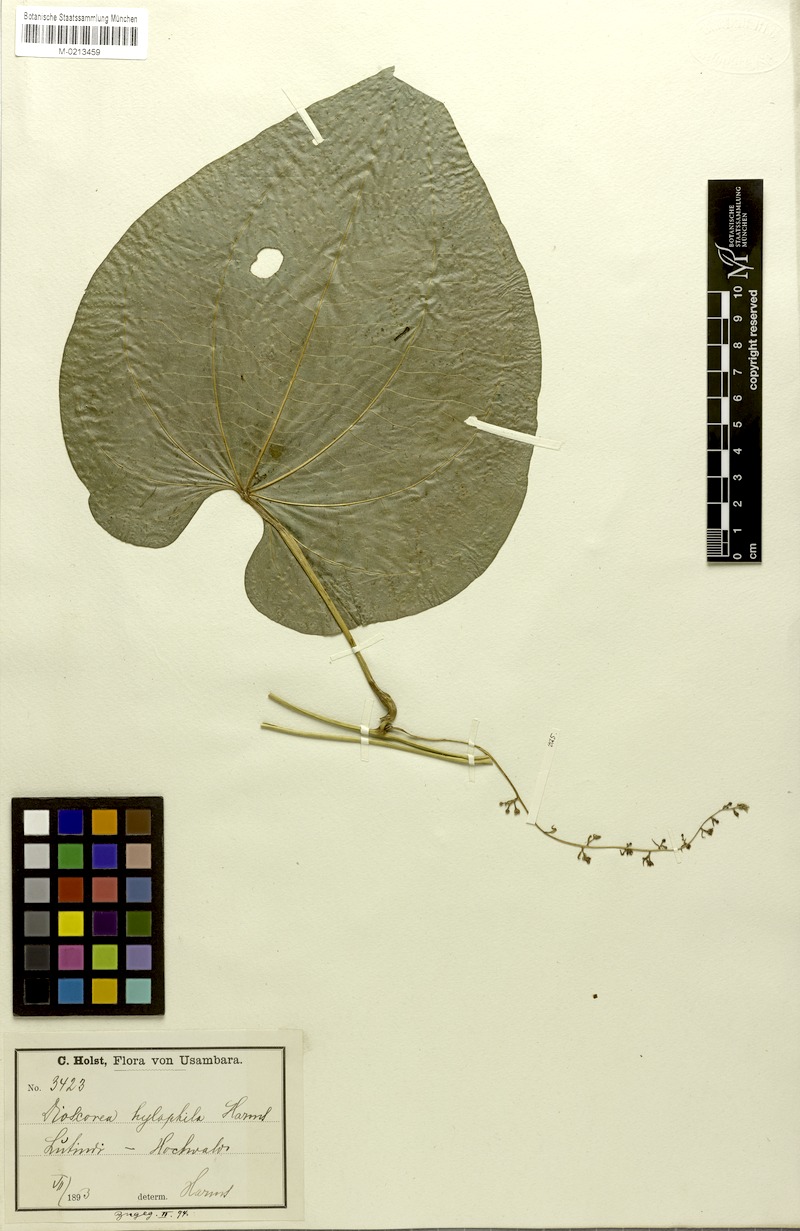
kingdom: Plantae
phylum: Tracheophyta
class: Liliopsida
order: Dioscoreales
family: Dioscoreaceae
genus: Dioscorea
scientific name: Dioscorea preussii
